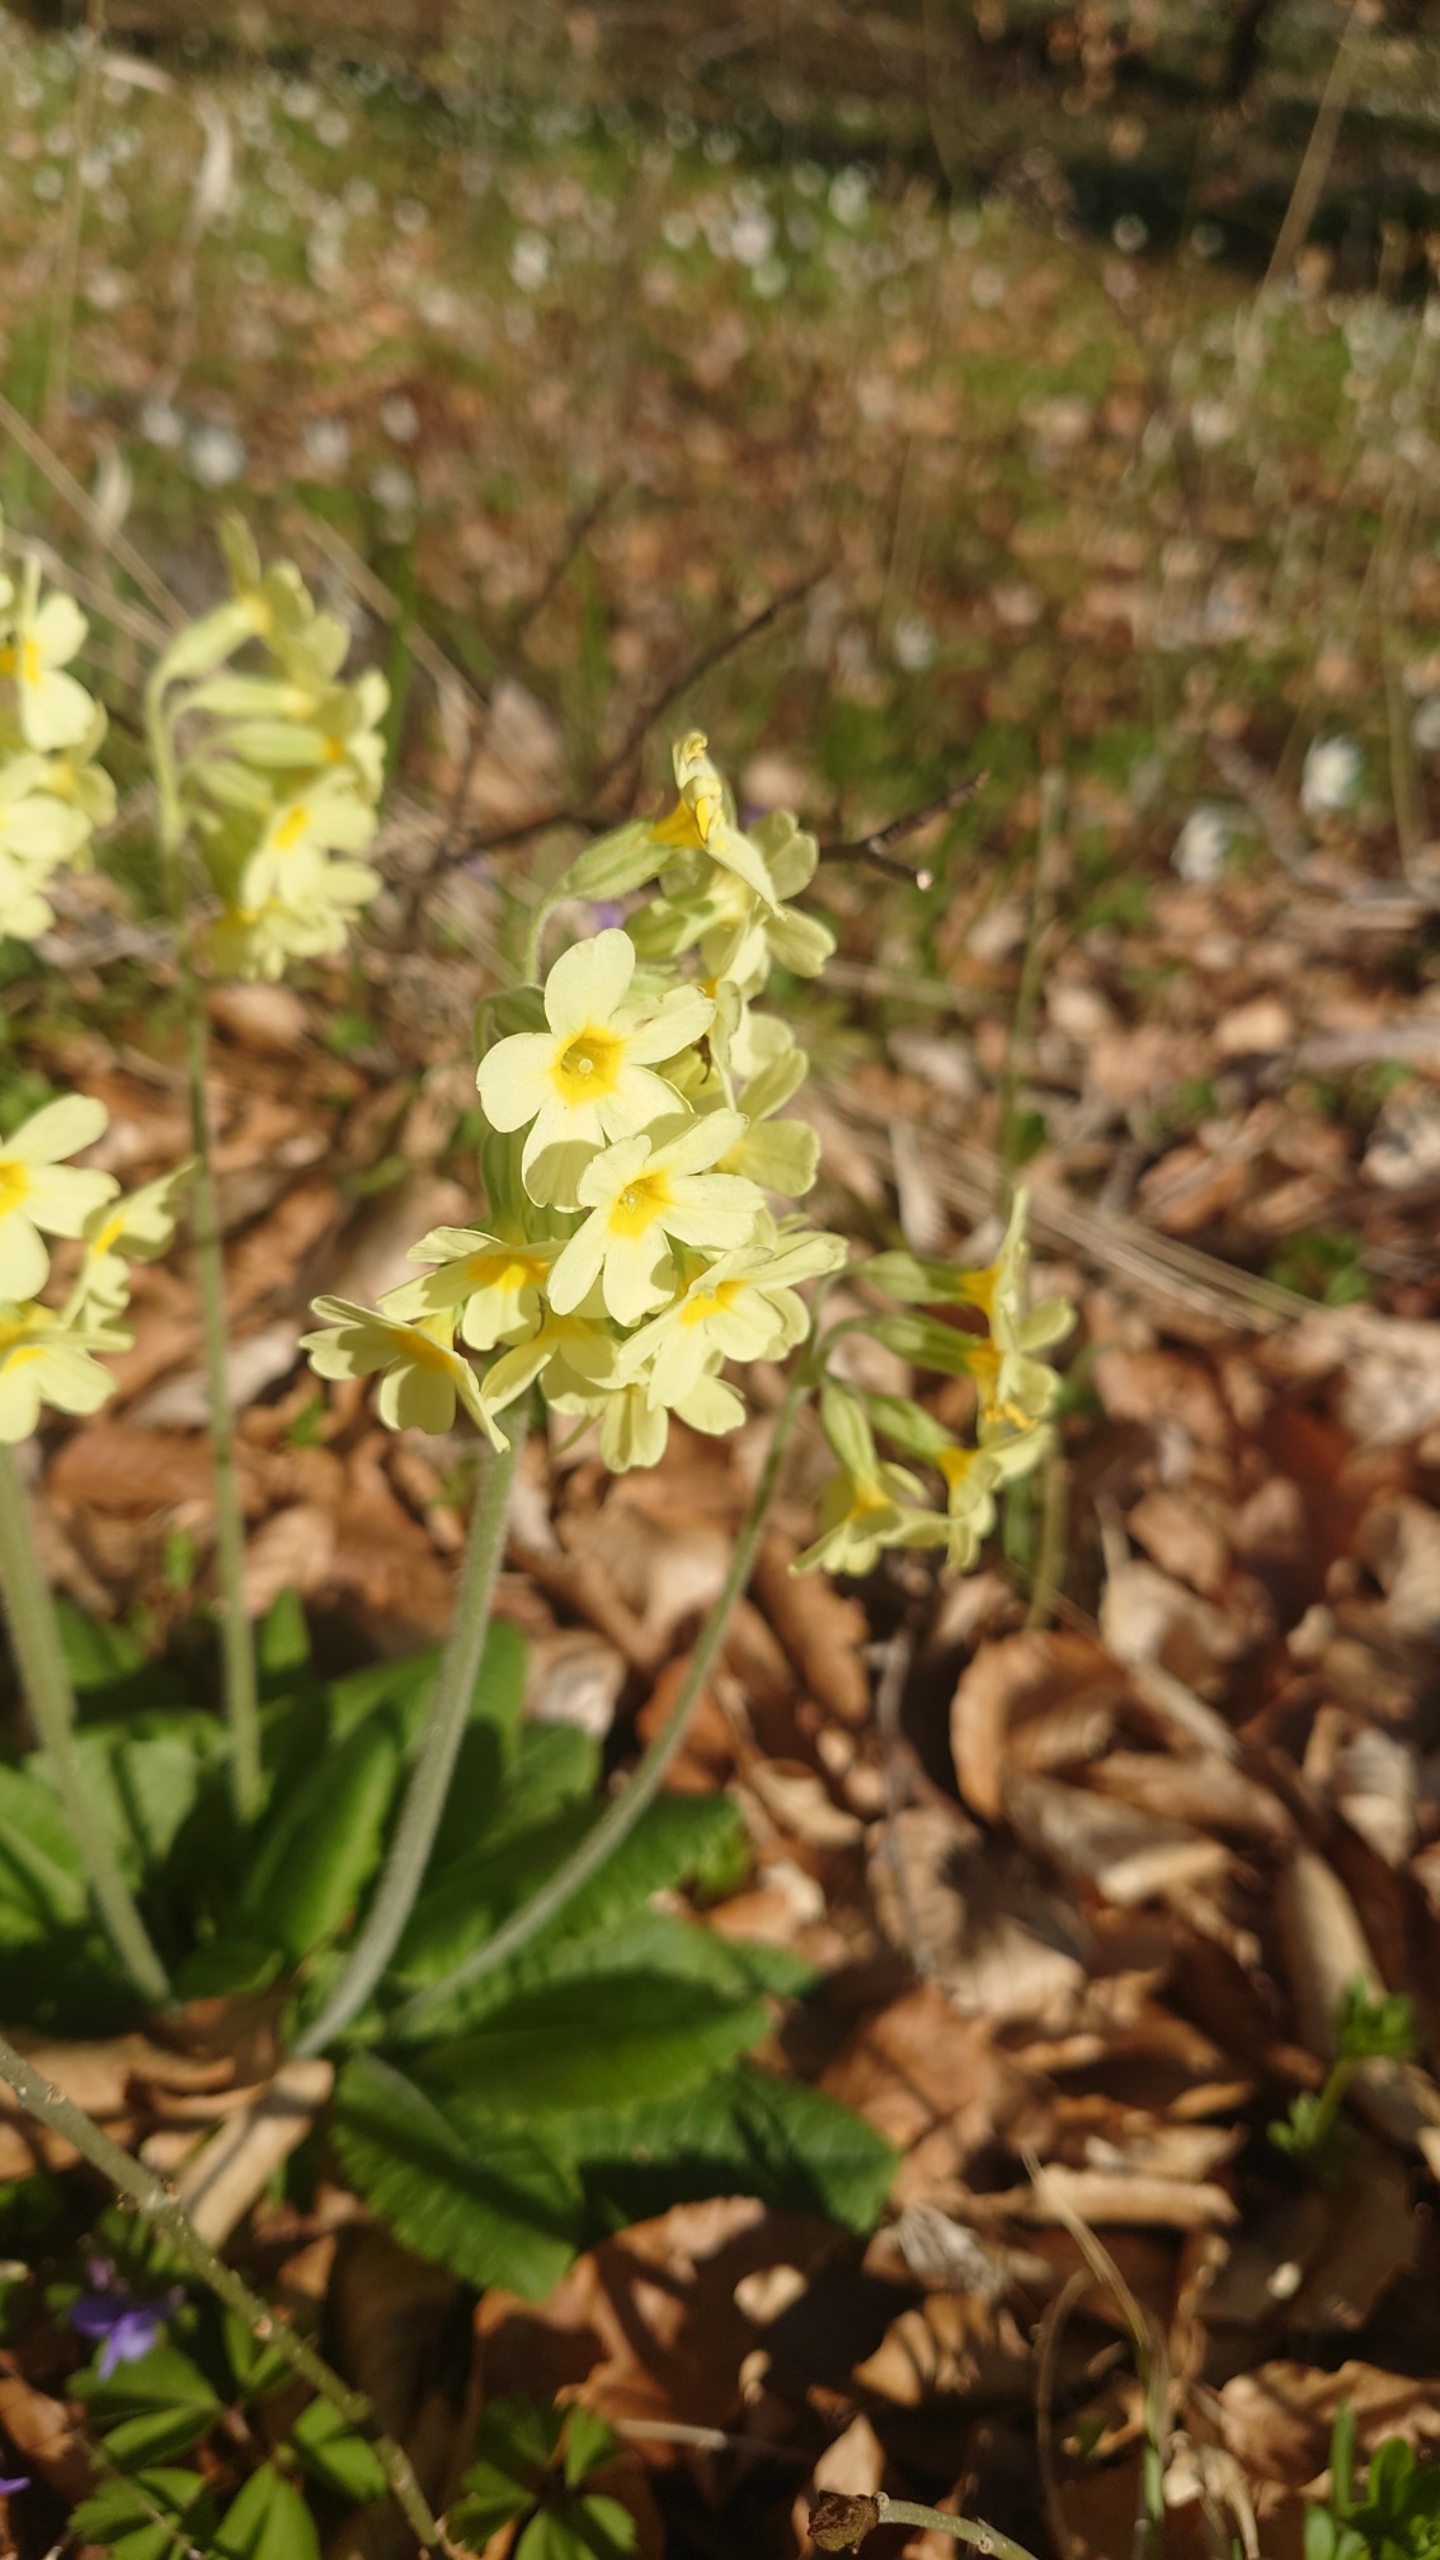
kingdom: Plantae
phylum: Tracheophyta
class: Magnoliopsida
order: Ericales
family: Primulaceae
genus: Primula
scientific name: Primula elatior
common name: Fladkravet kodriver
